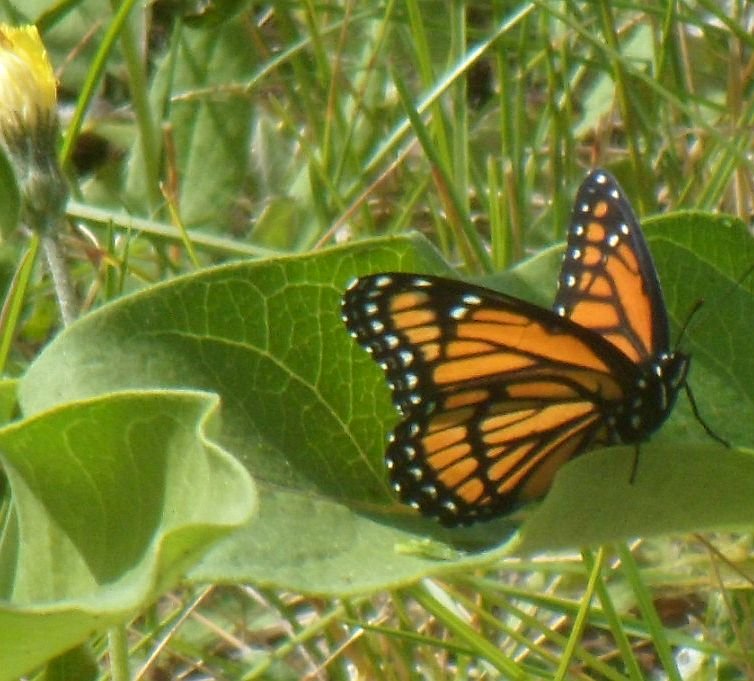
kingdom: Animalia
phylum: Arthropoda
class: Insecta
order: Lepidoptera
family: Nymphalidae
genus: Limenitis
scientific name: Limenitis archippus
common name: Viceroy
